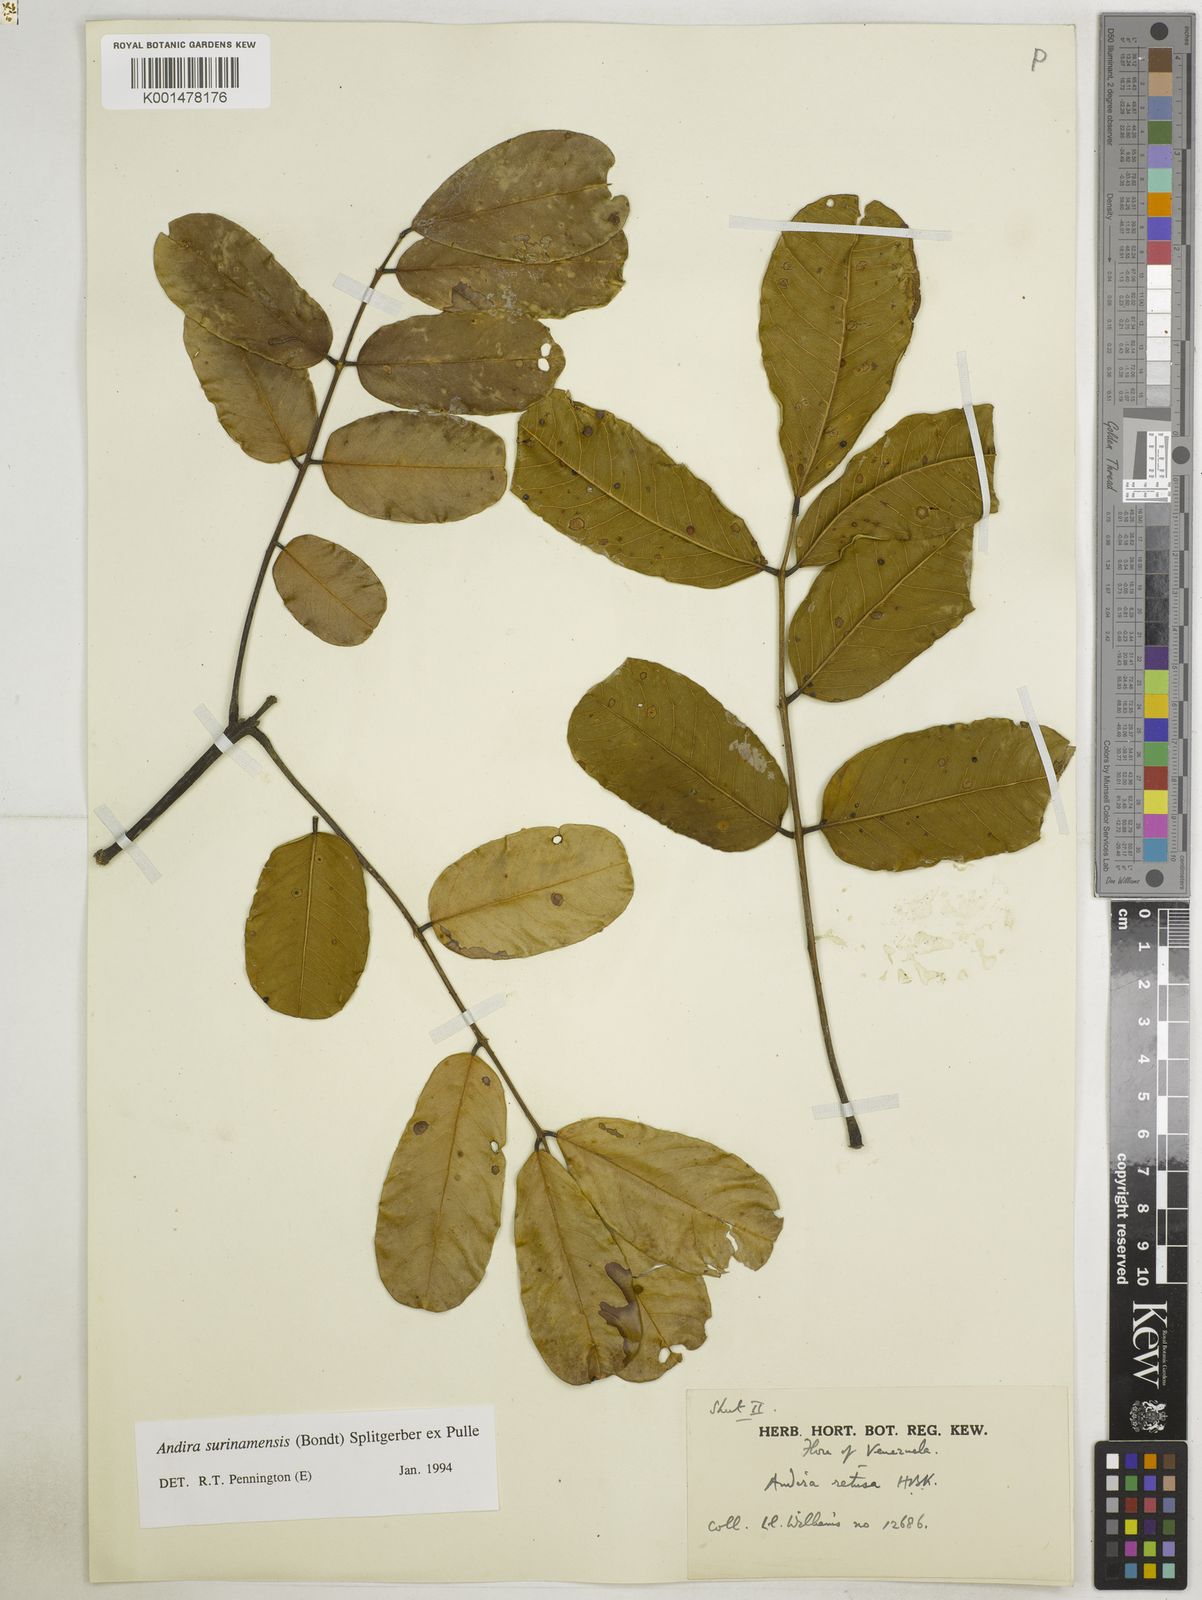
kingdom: Plantae
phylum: Tracheophyta
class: Magnoliopsida
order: Fabales
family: Fabaceae
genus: Andira
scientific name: Andira surinamensis
